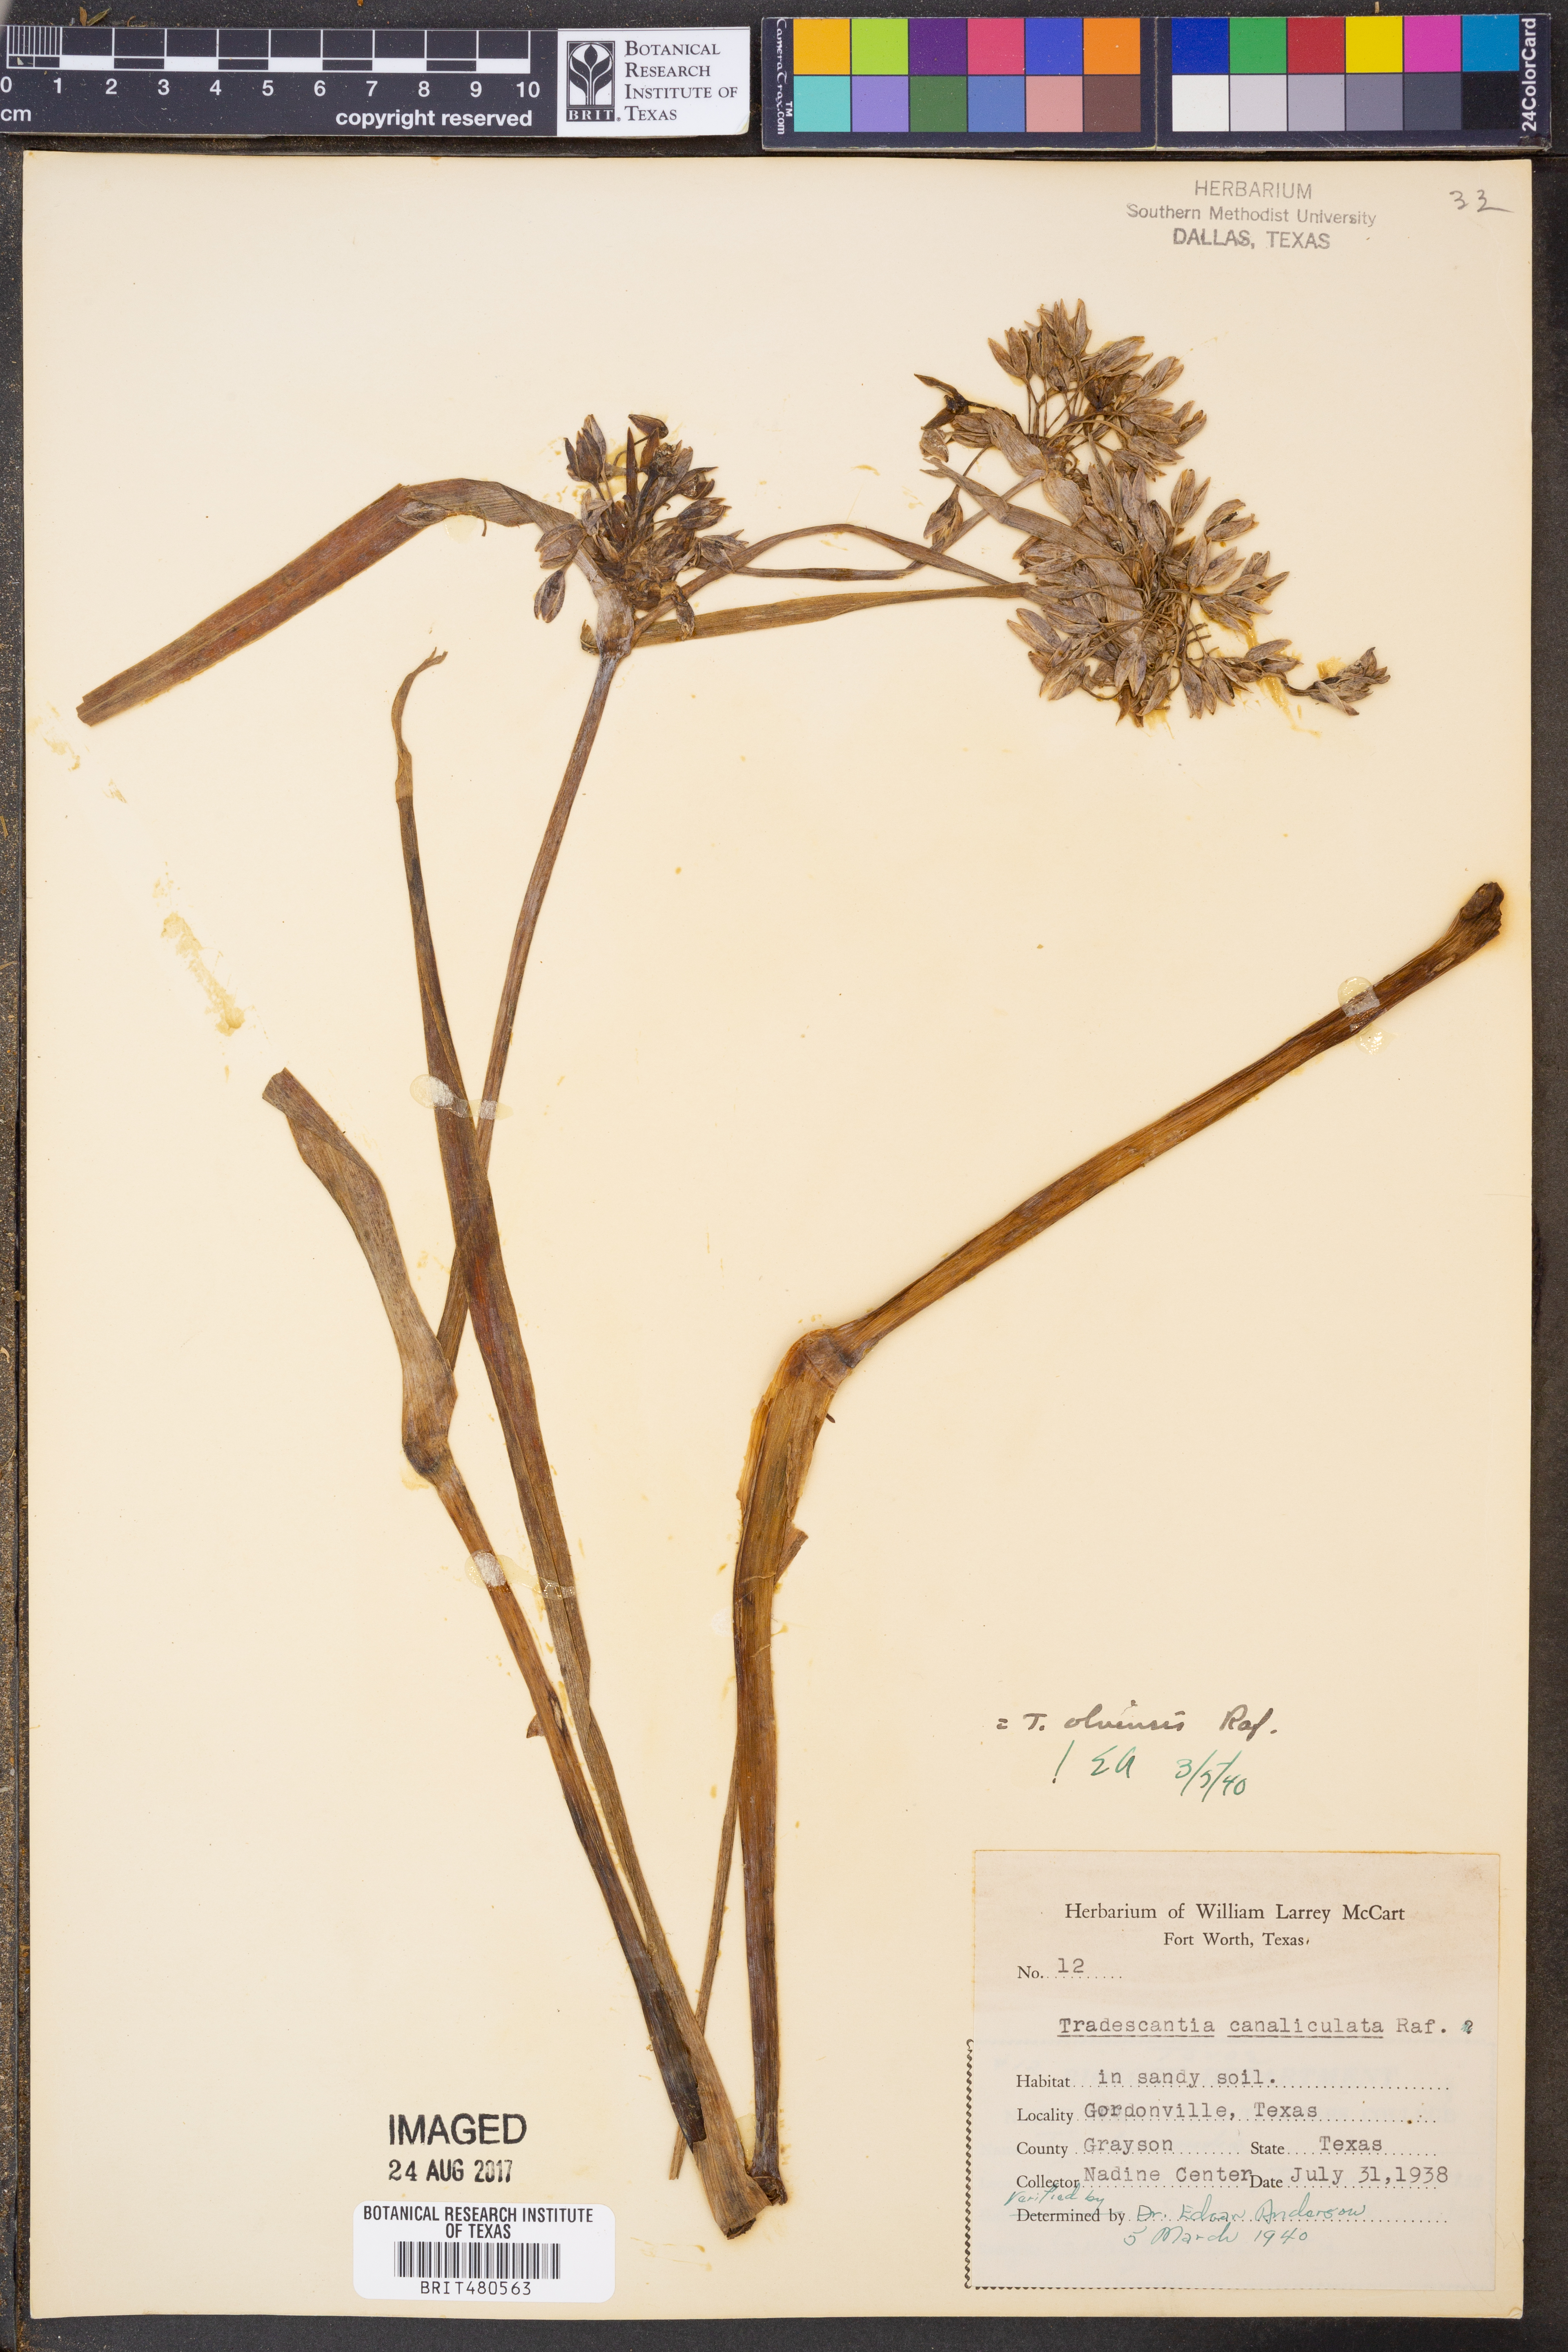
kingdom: Plantae
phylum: Tracheophyta
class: Liliopsida
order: Commelinales
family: Commelinaceae
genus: Tradescantia
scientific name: Tradescantia ohiensis
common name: Ohio spiderwort
